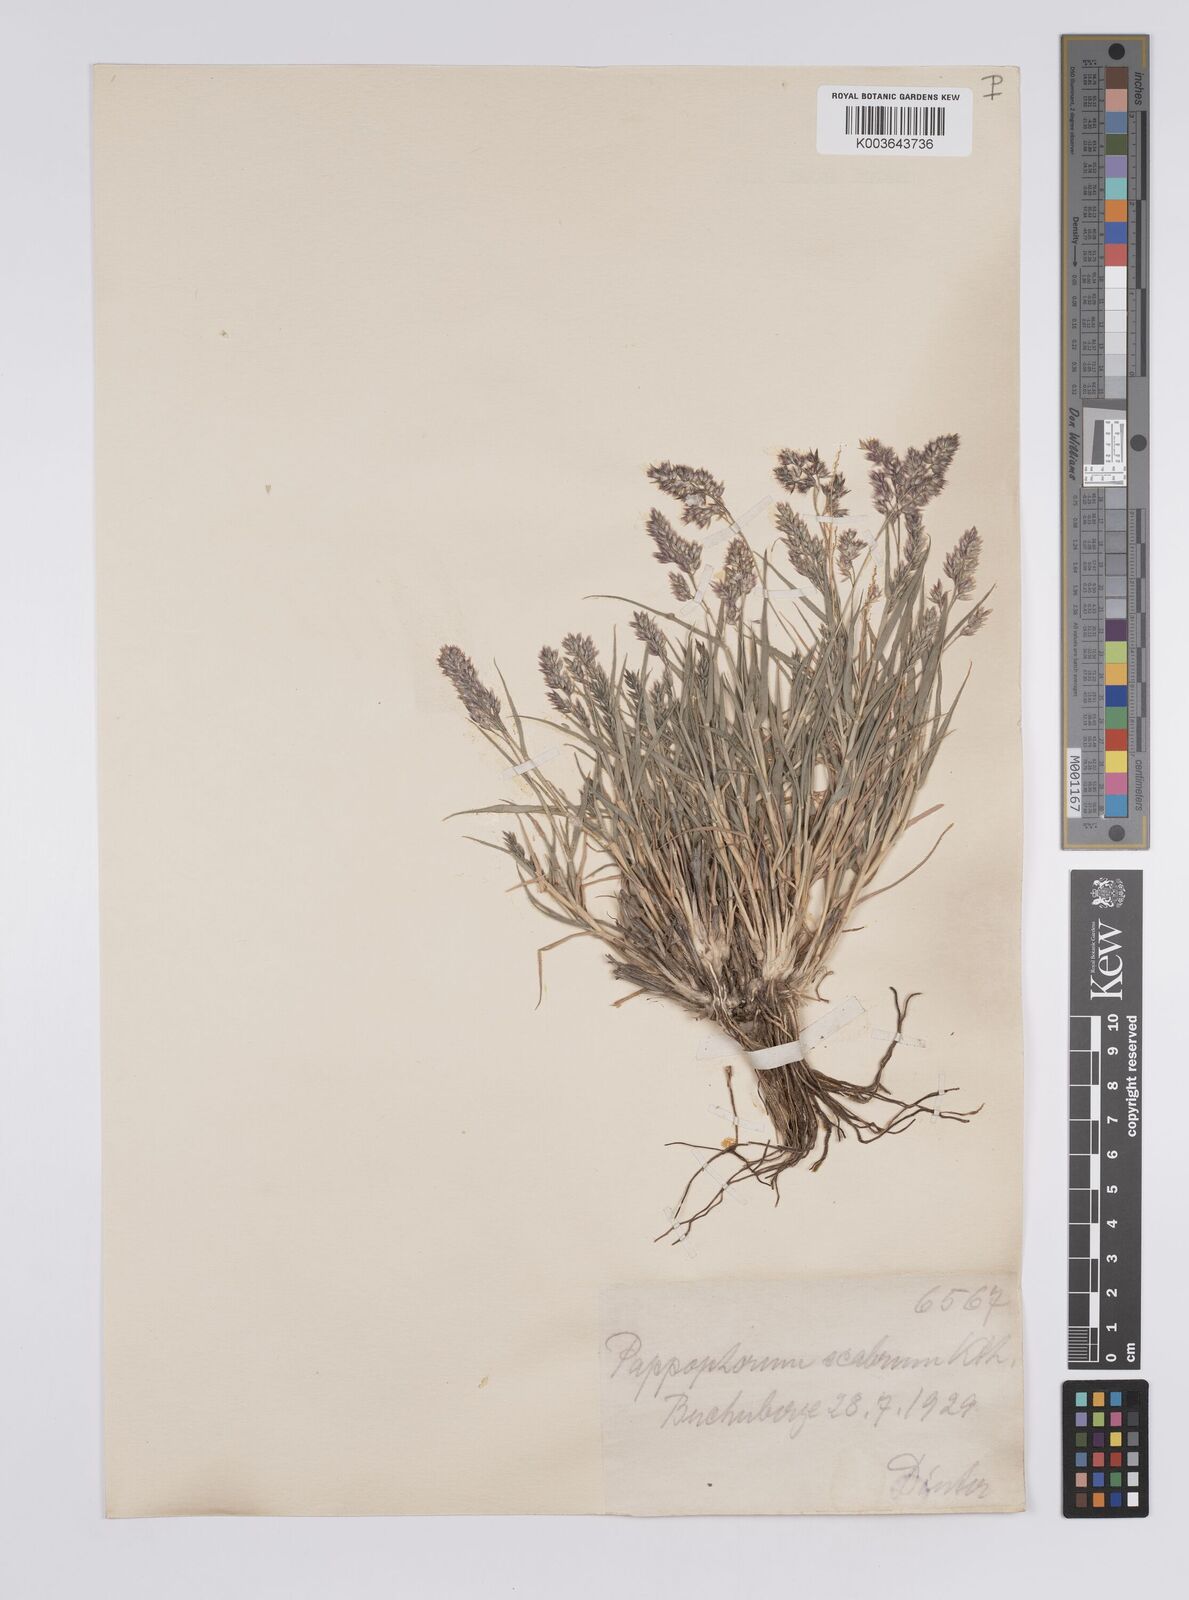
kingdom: Plantae
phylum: Tracheophyta
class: Liliopsida
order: Poales
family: Poaceae
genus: Enneapogon
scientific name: Enneapogon scaber
